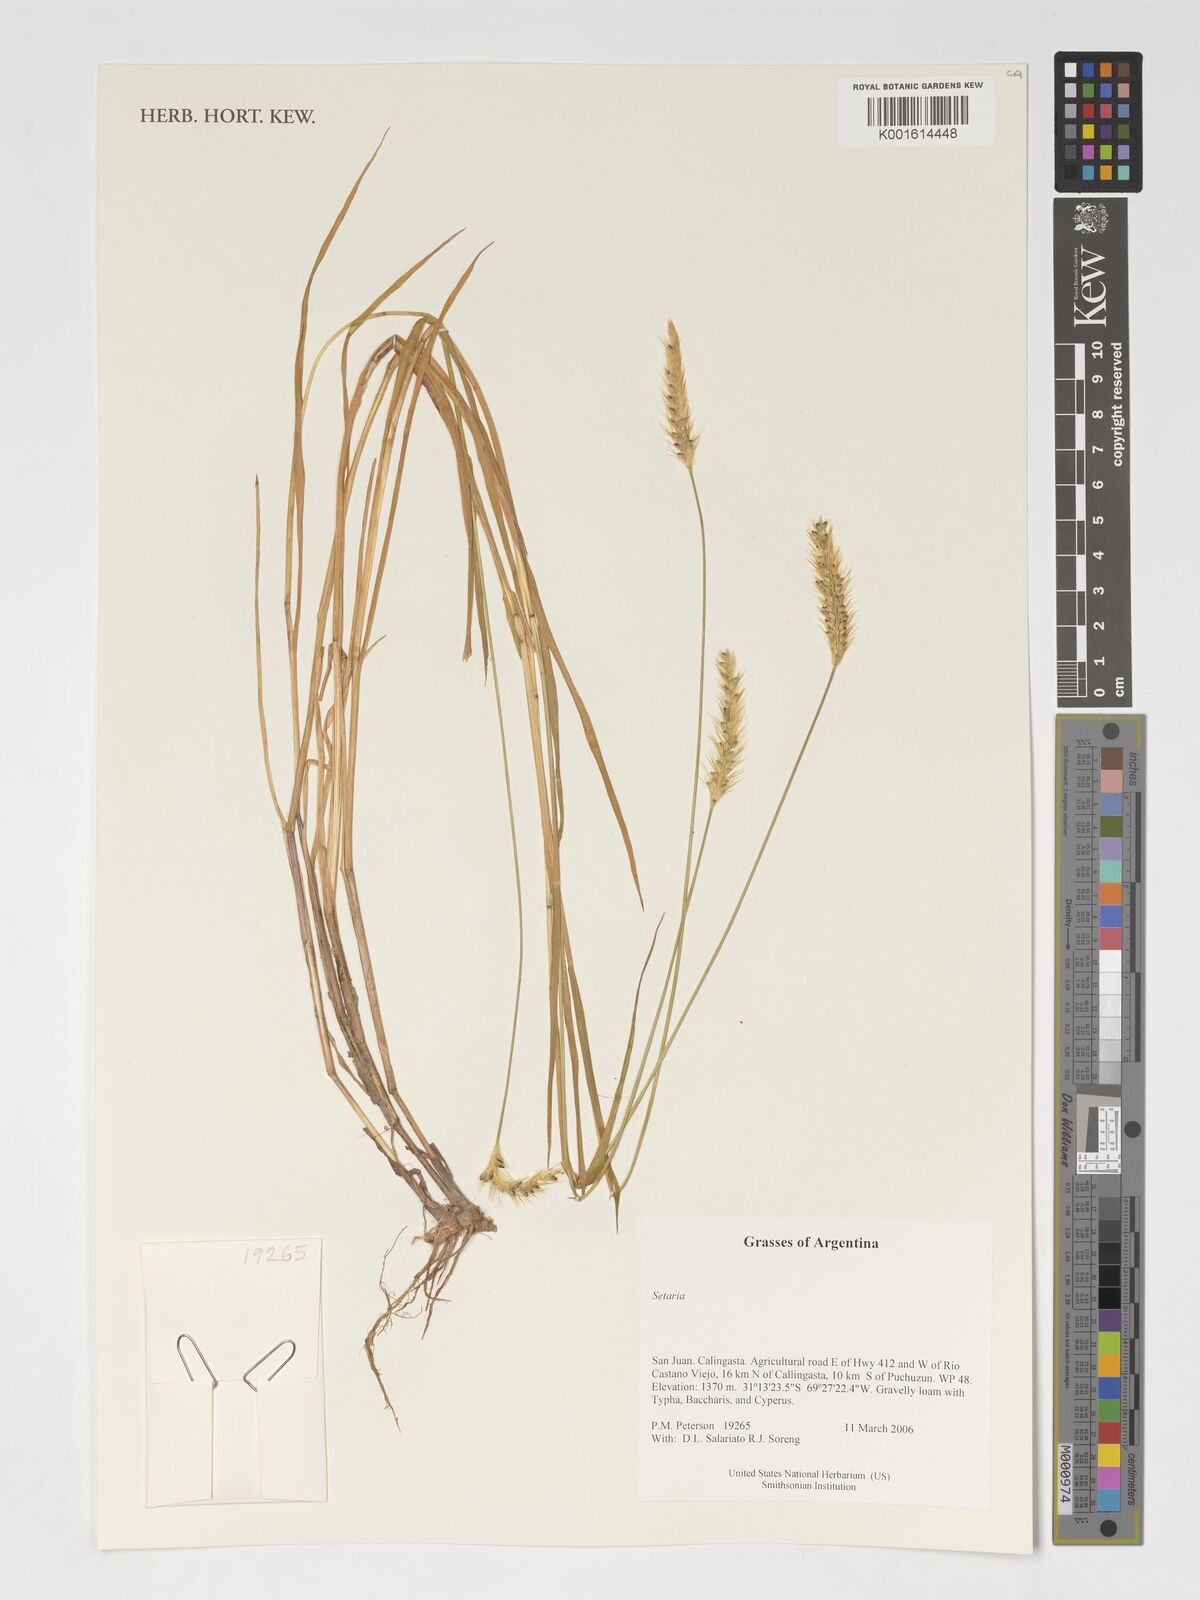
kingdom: Plantae
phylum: Tracheophyta
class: Liliopsida
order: Poales
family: Poaceae
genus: Setaria
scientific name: Setaria
